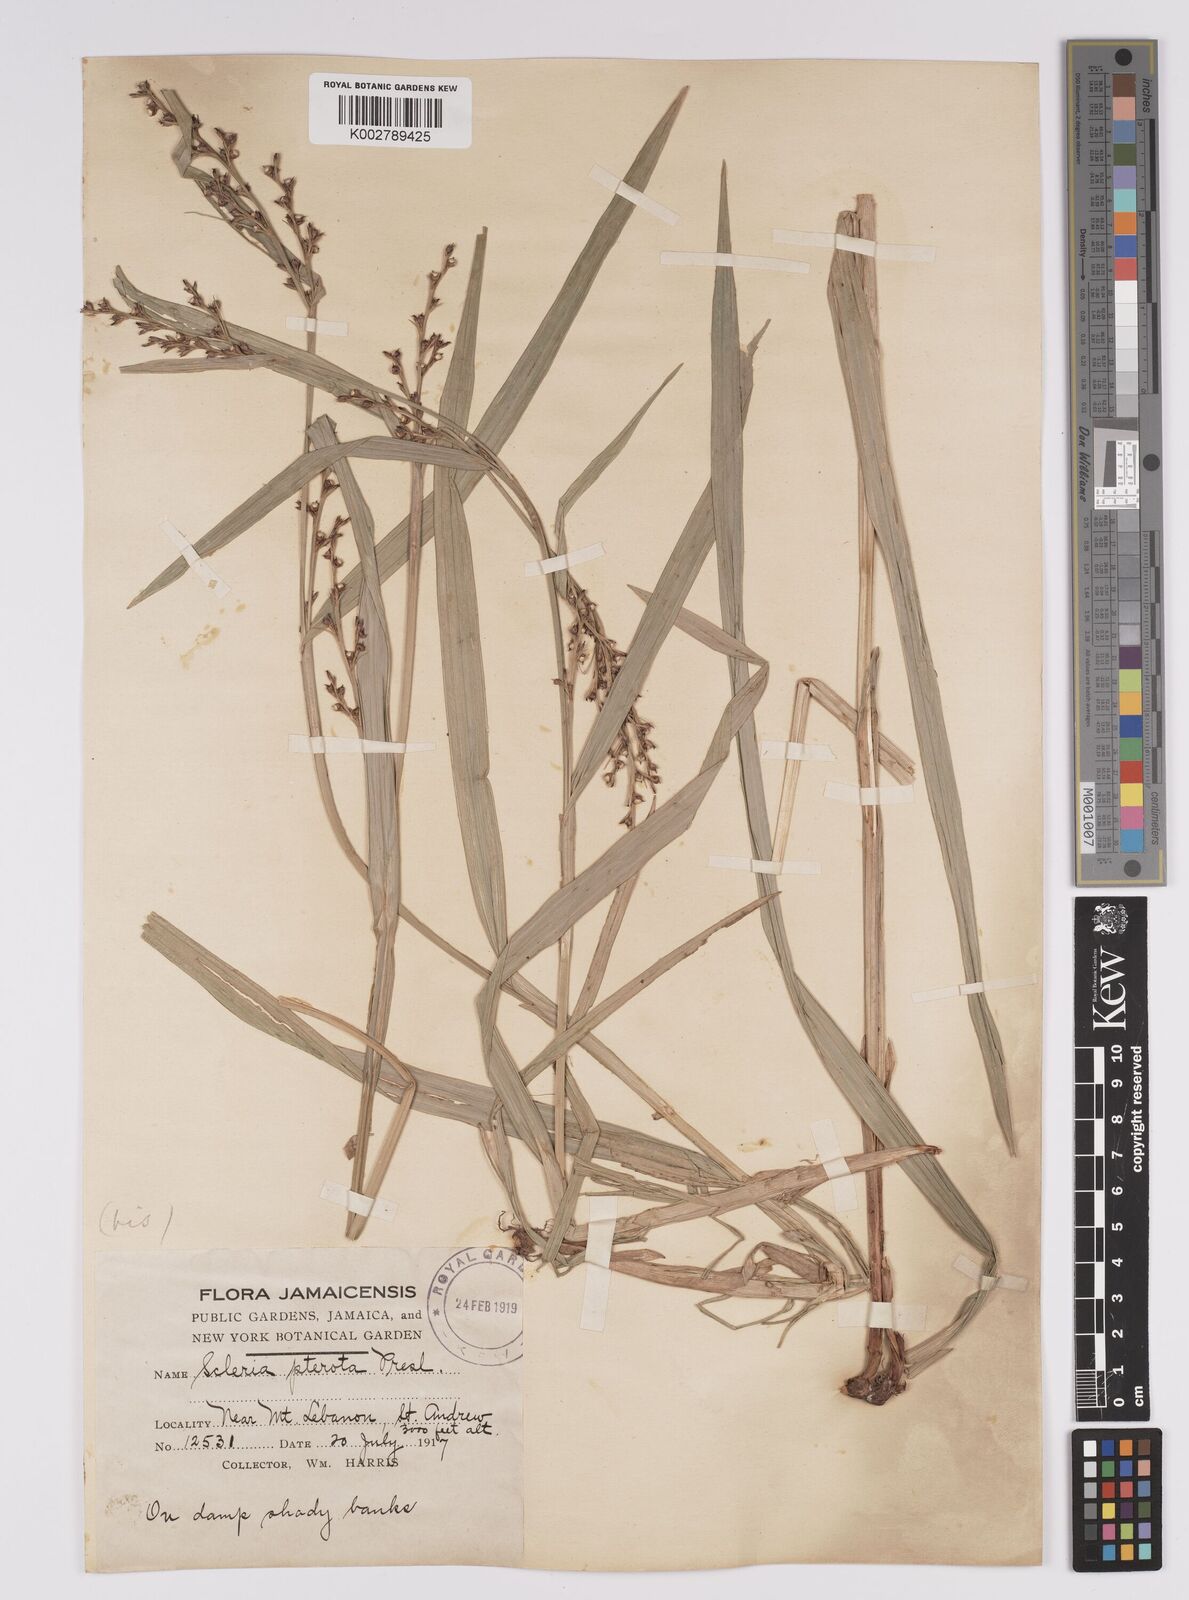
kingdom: Plantae
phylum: Tracheophyta
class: Liliopsida
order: Poales
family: Cyperaceae
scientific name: Cyperaceae
